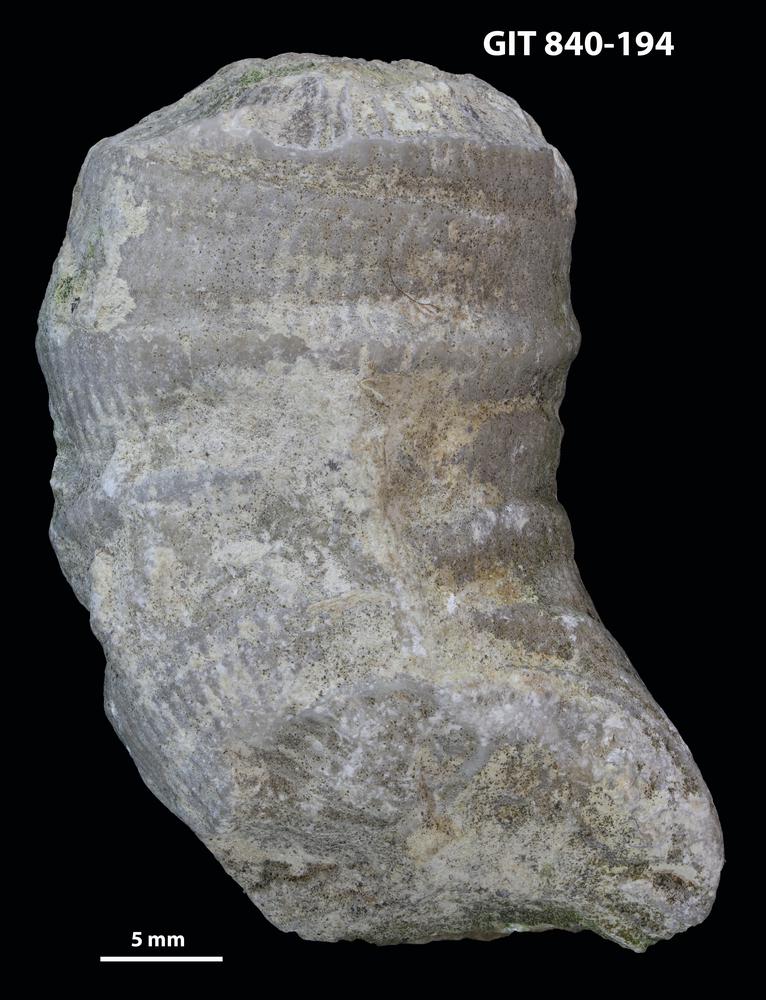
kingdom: Animalia
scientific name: Animalia
